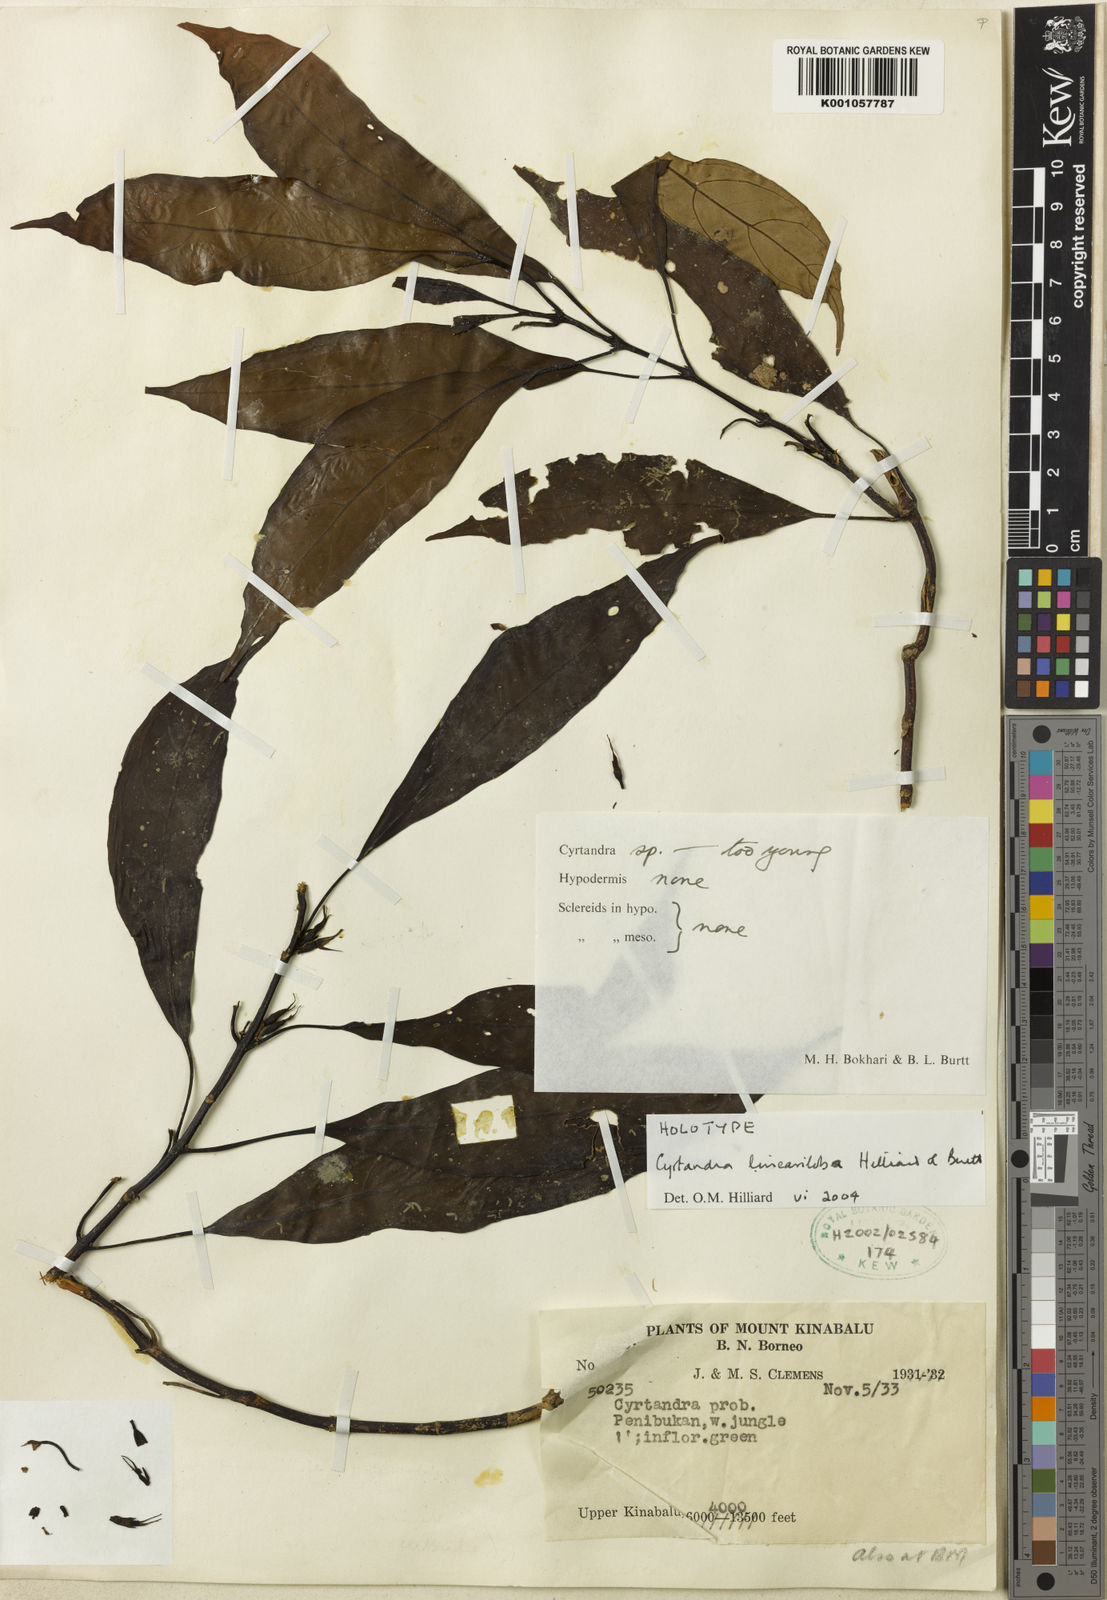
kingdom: Plantae
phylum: Tracheophyta
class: Magnoliopsida
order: Lamiales
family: Gesneriaceae
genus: Cyrtandra
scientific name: Cyrtandra lineariloba
